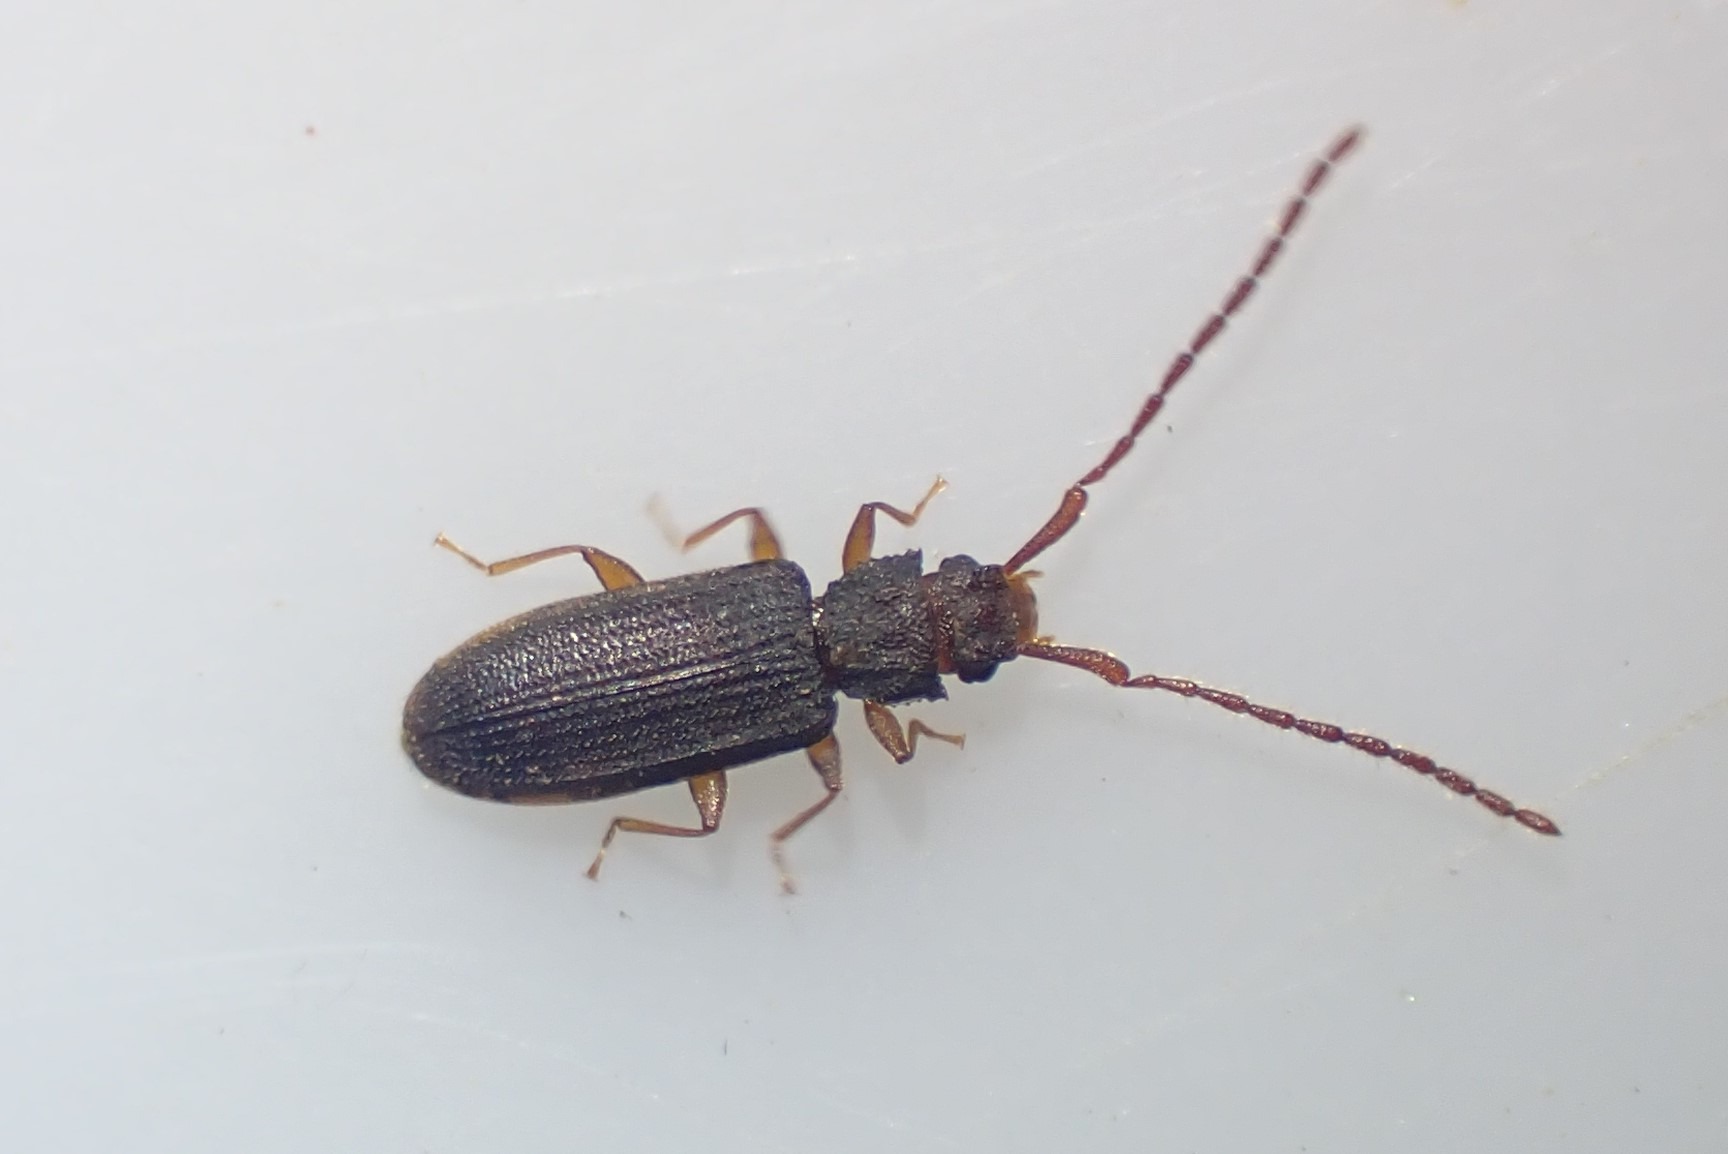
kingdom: Animalia
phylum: Arthropoda
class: Insecta
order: Coleoptera
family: Silvanidae
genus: Uleiota
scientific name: Uleiota planatus
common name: Langhornet fladbille
